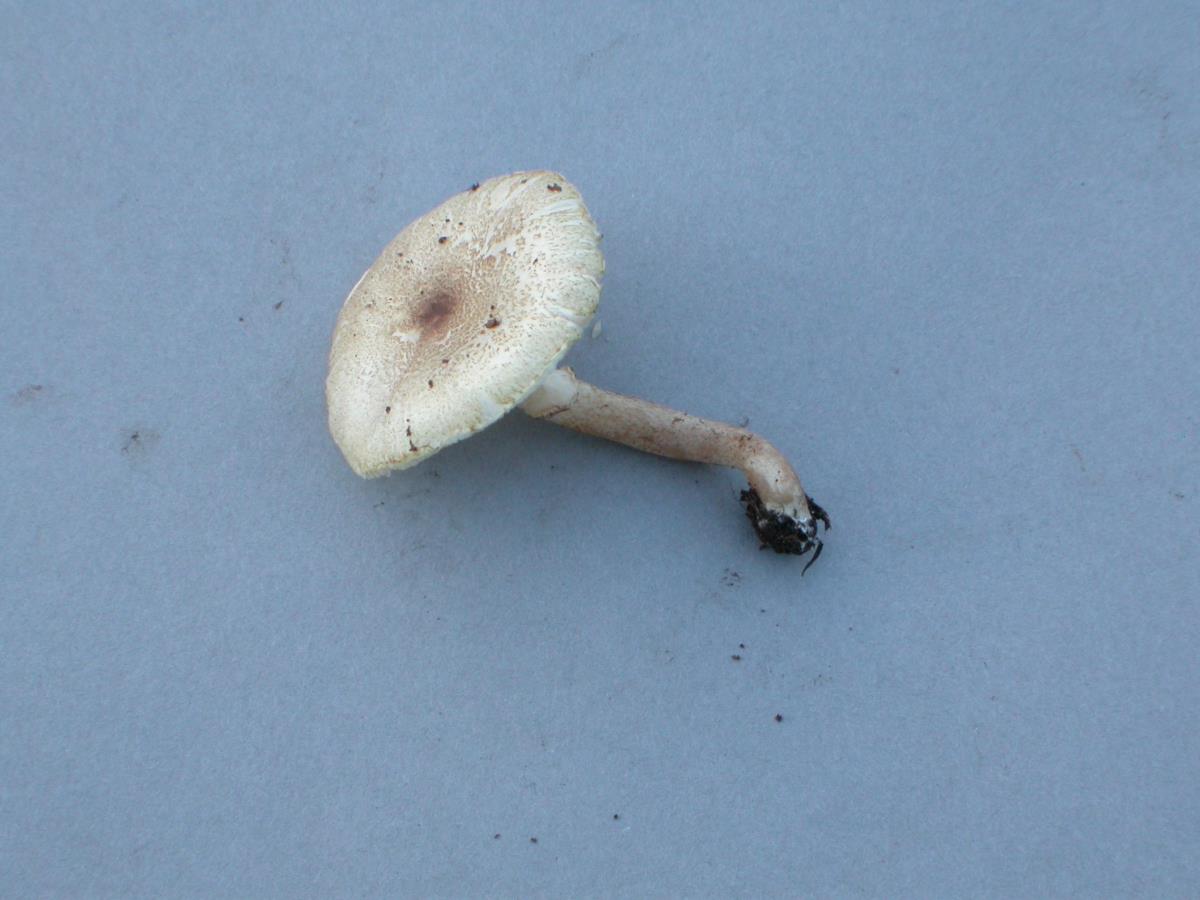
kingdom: Fungi
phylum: Basidiomycota
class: Agaricomycetes
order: Agaricales
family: Agaricaceae
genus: Leucoagaricus
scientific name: Leucoagaricus leucothites
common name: White dapperling
